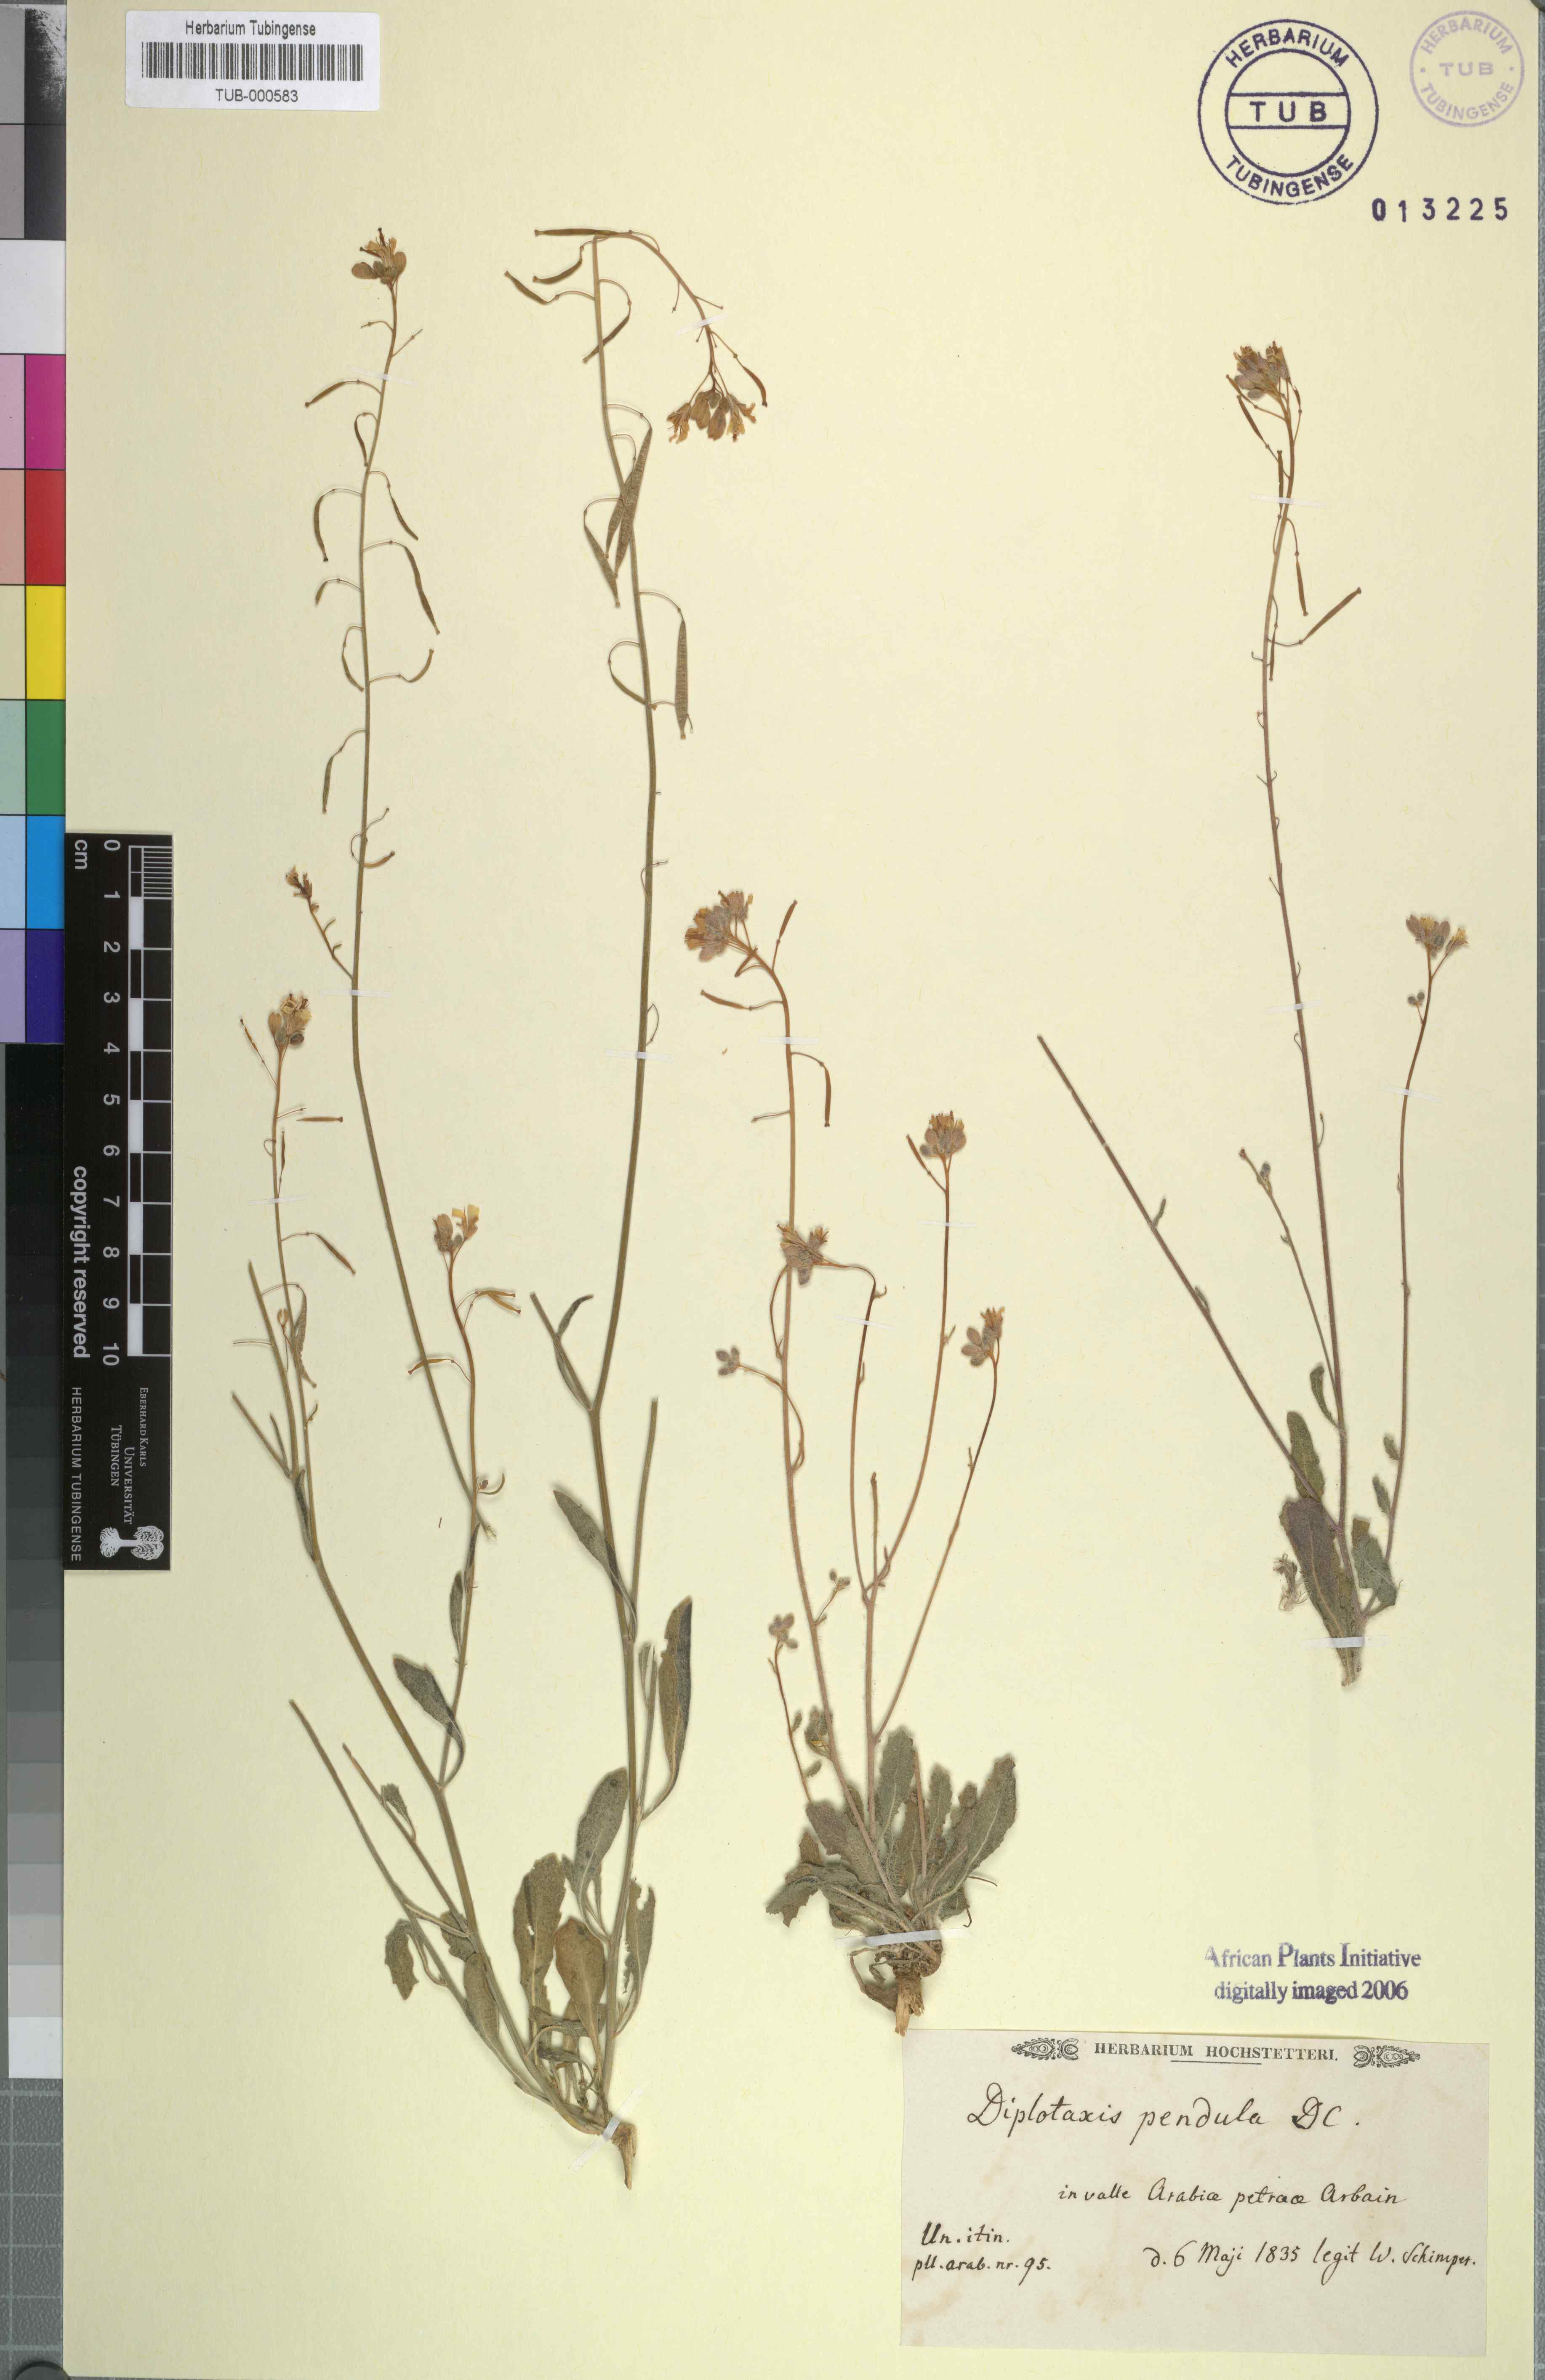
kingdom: Plantae
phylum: Tracheophyta
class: Magnoliopsida
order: Brassicales
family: Brassicaceae
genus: Diplotaxis
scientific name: Diplotaxis harra
